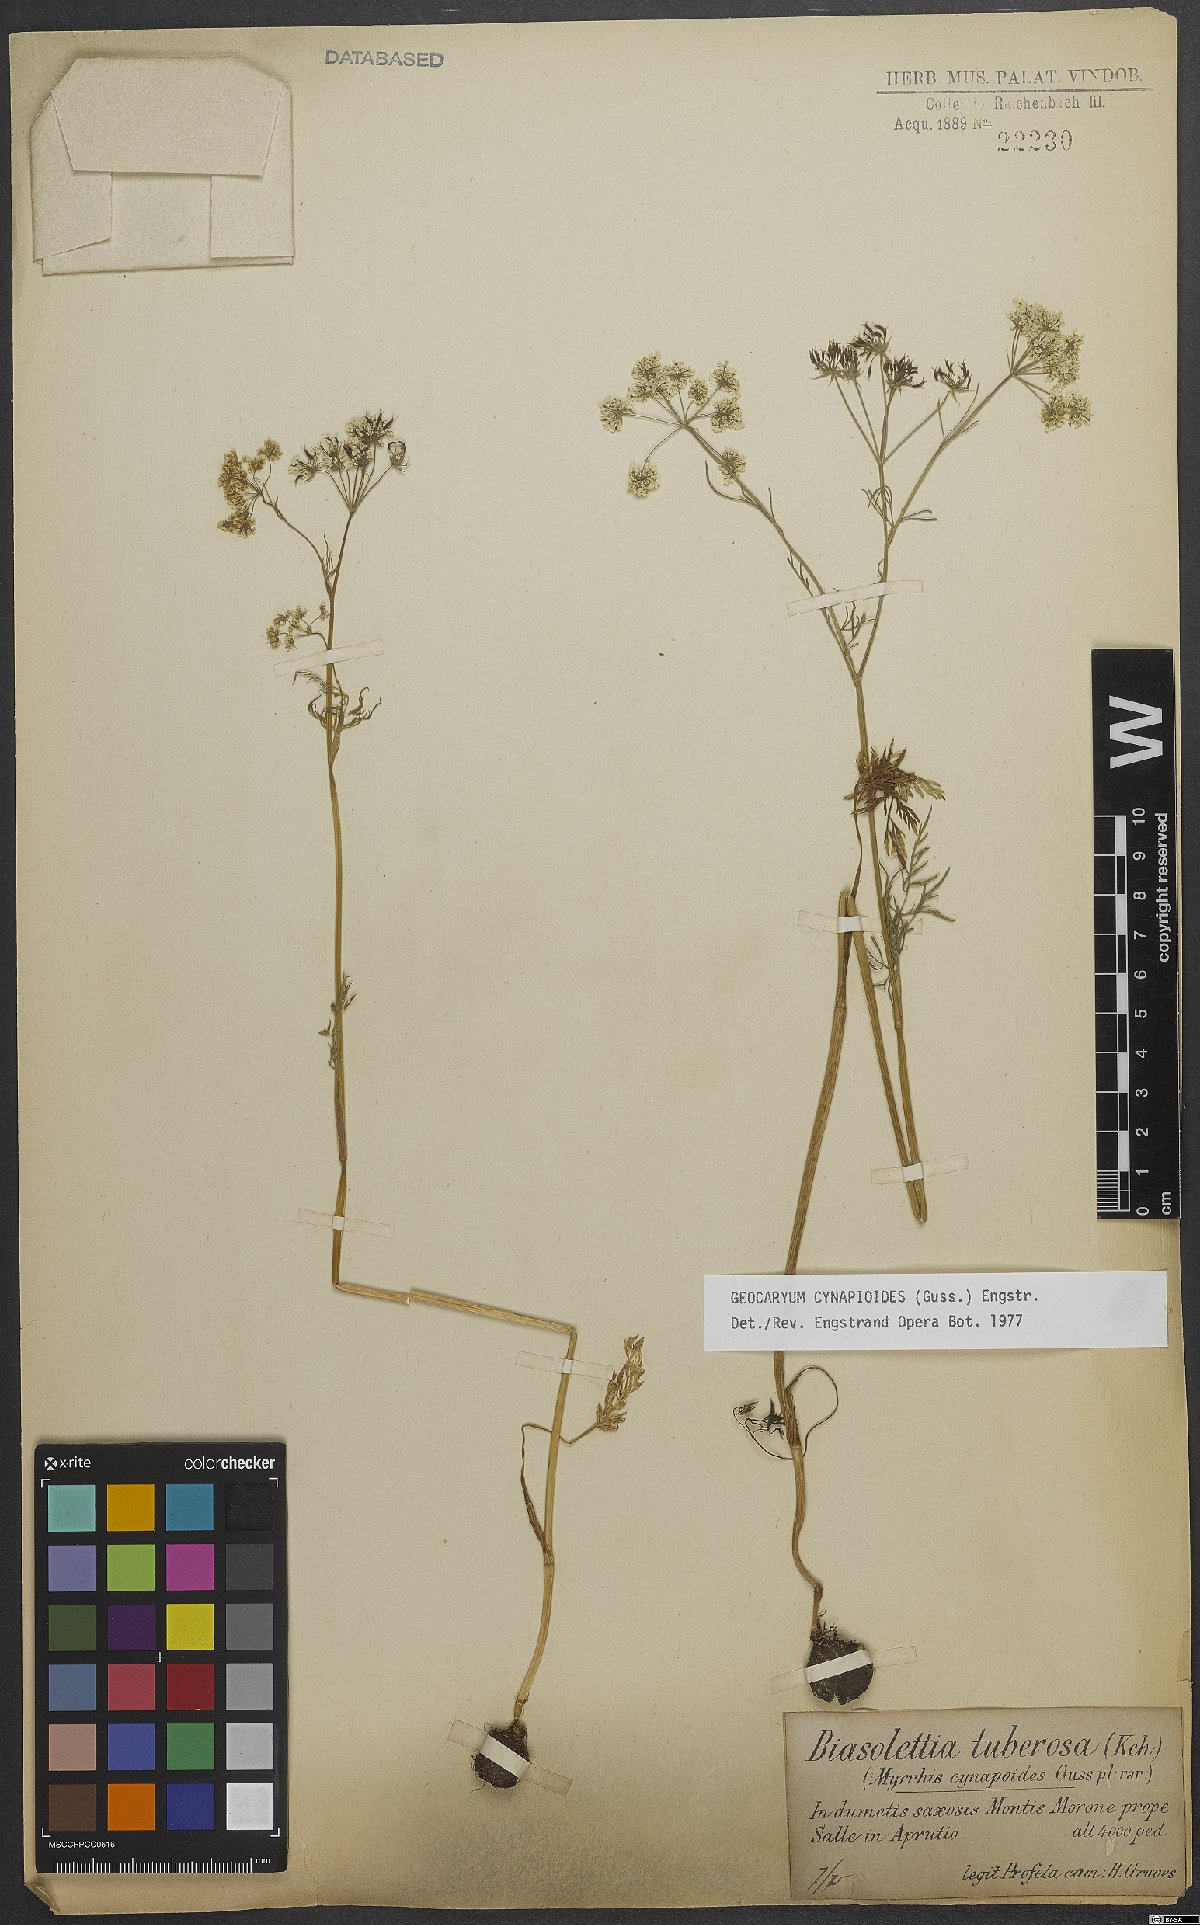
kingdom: Plantae
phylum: Tracheophyta
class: Magnoliopsida
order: Apiales
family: Apiaceae
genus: Geocaryum
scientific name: Geocaryum cynapioides
